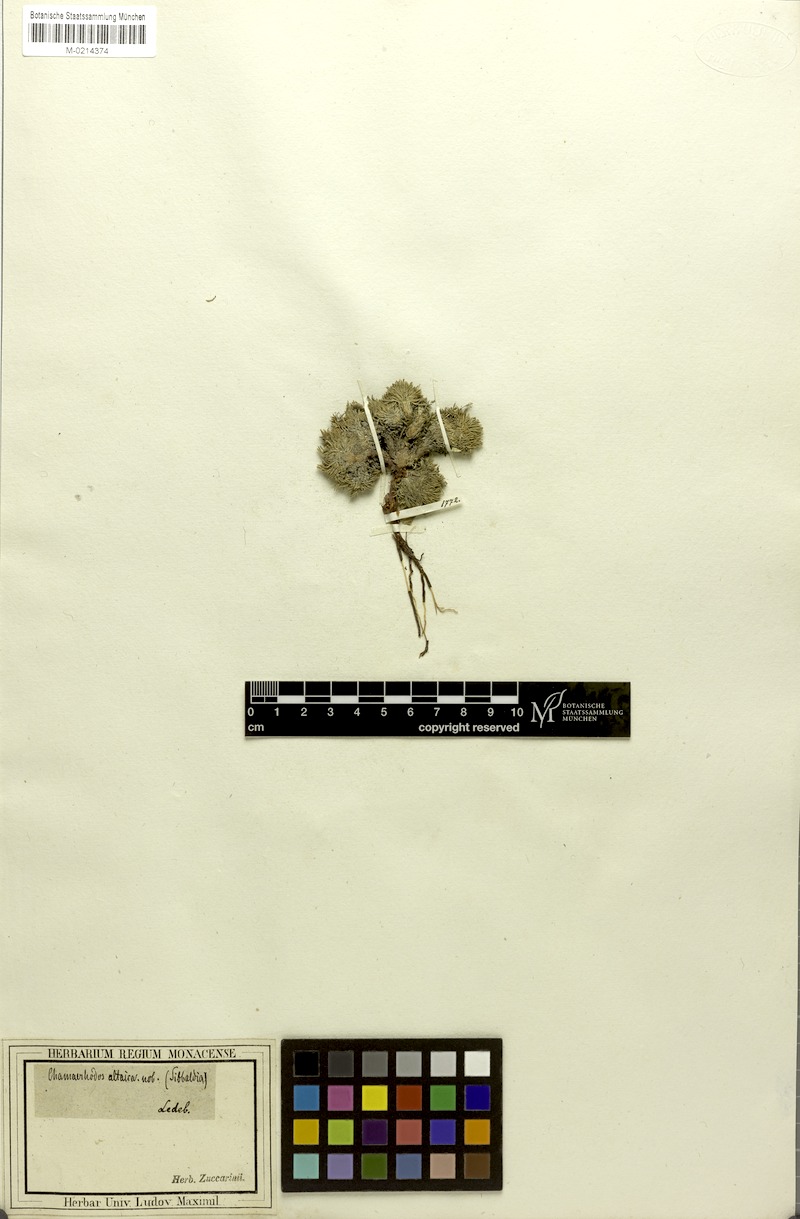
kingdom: Plantae
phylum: Tracheophyta
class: Magnoliopsida
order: Rosales
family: Rosaceae
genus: Chamaerhodos
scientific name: Chamaerhodos altaica
